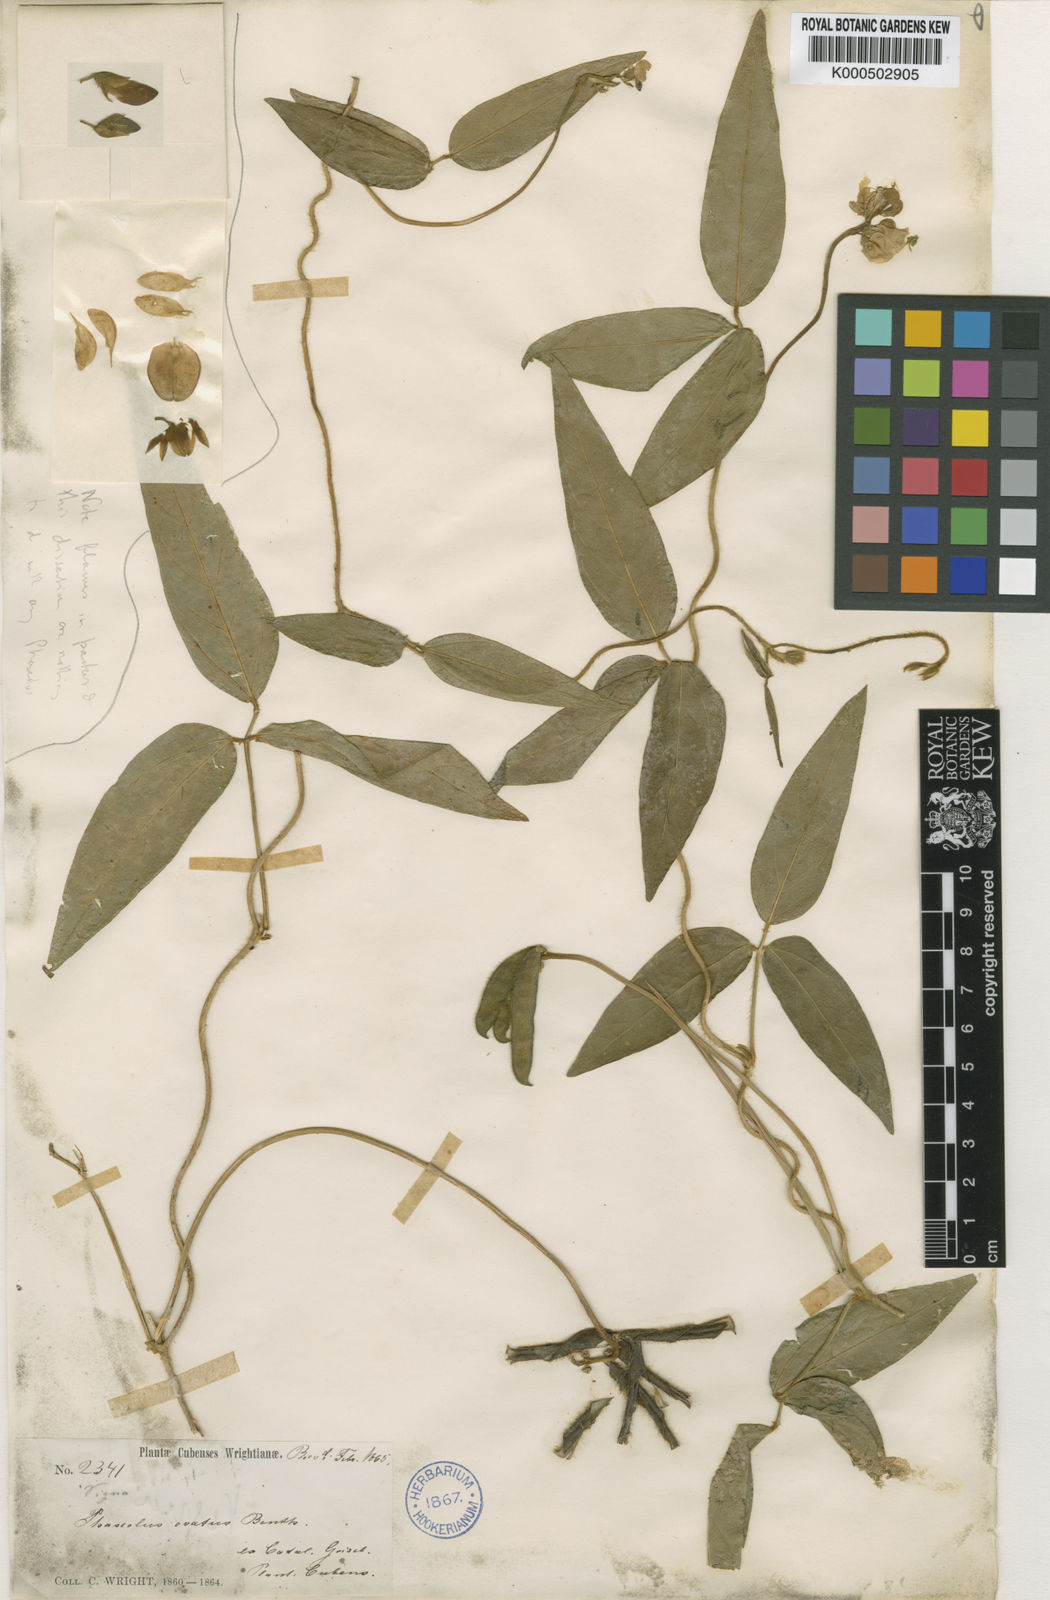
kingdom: Plantae
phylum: Tracheophyta
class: Magnoliopsida
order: Fabales
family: Fabaceae
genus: Vigna
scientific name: Vigna longifolia
